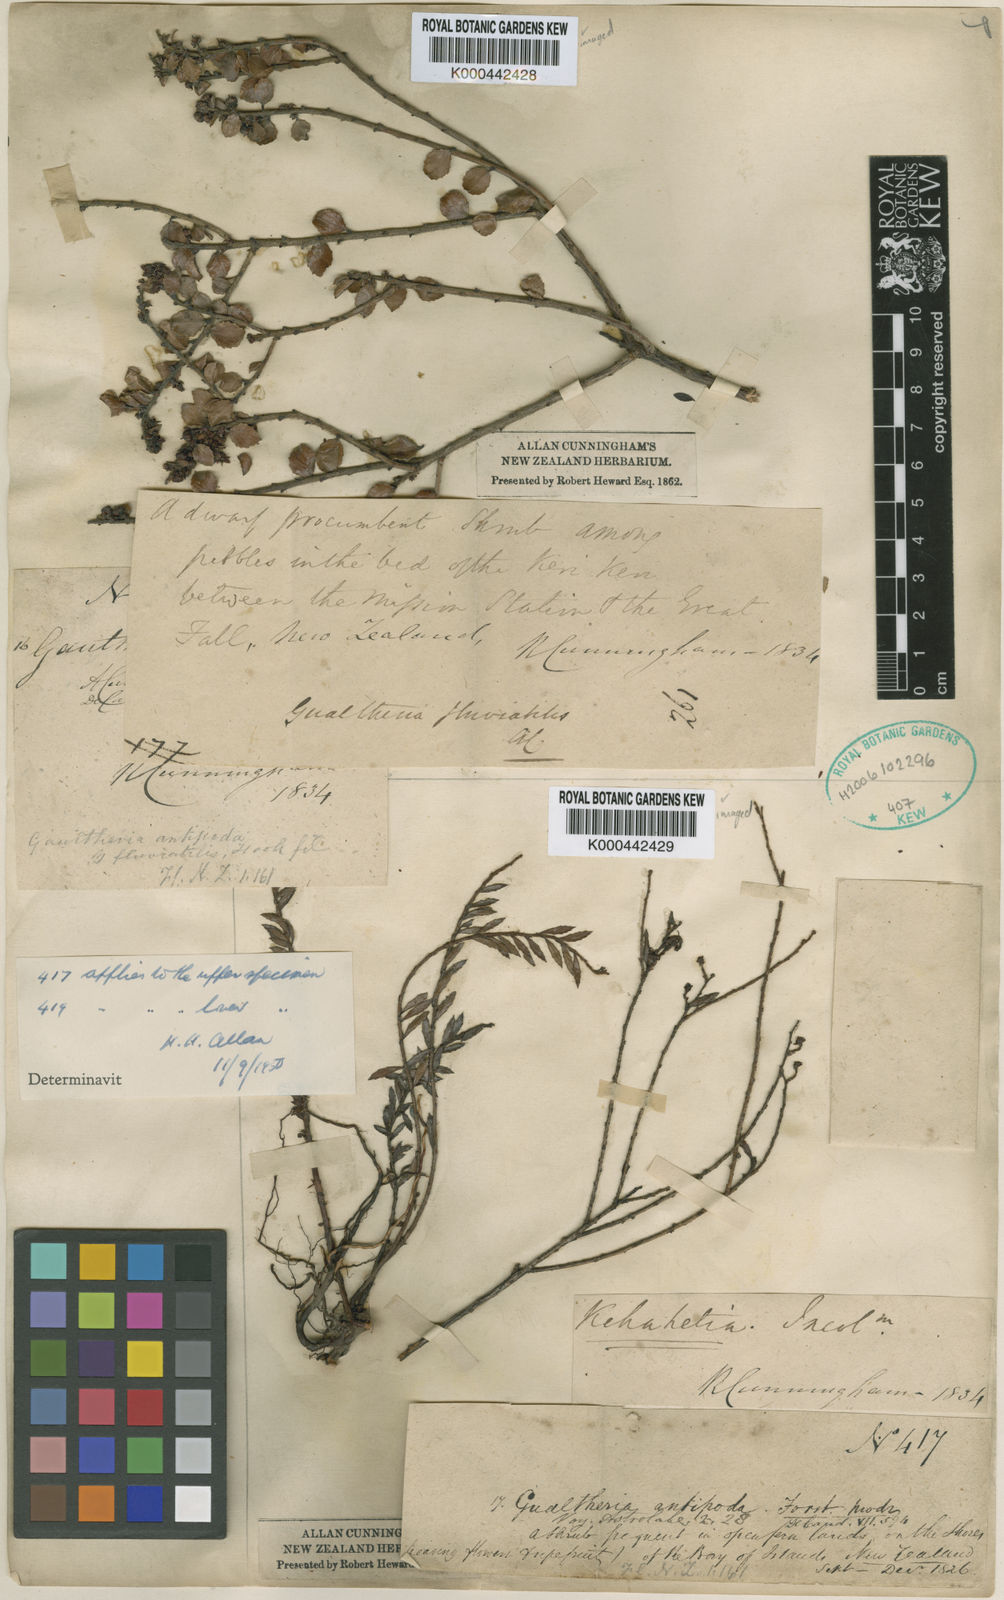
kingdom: Plantae
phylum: Tracheophyta
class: Magnoliopsida
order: Ericales
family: Ericaceae
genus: Gaultheria
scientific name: Gaultheria antipoda
